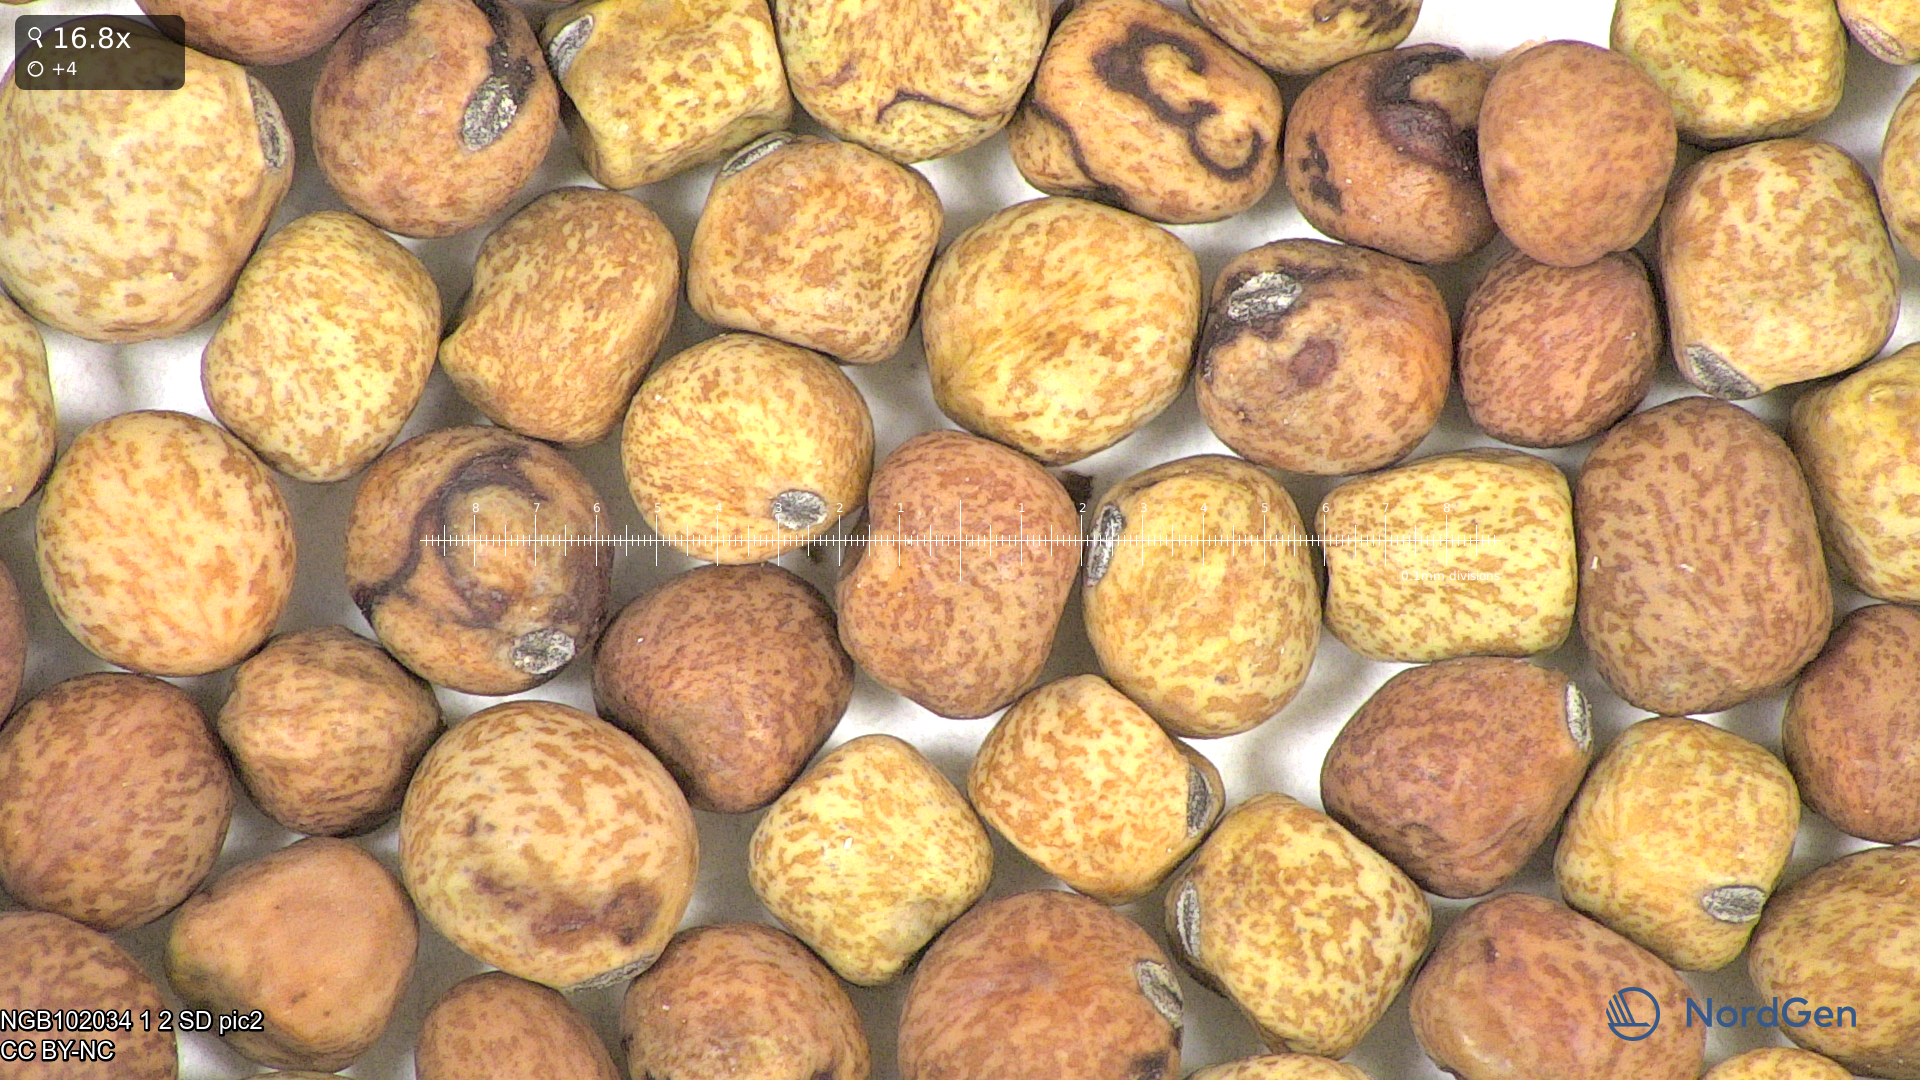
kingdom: Plantae
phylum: Tracheophyta
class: Magnoliopsida
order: Fabales
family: Fabaceae
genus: Lathyrus
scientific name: Lathyrus oleraceus
